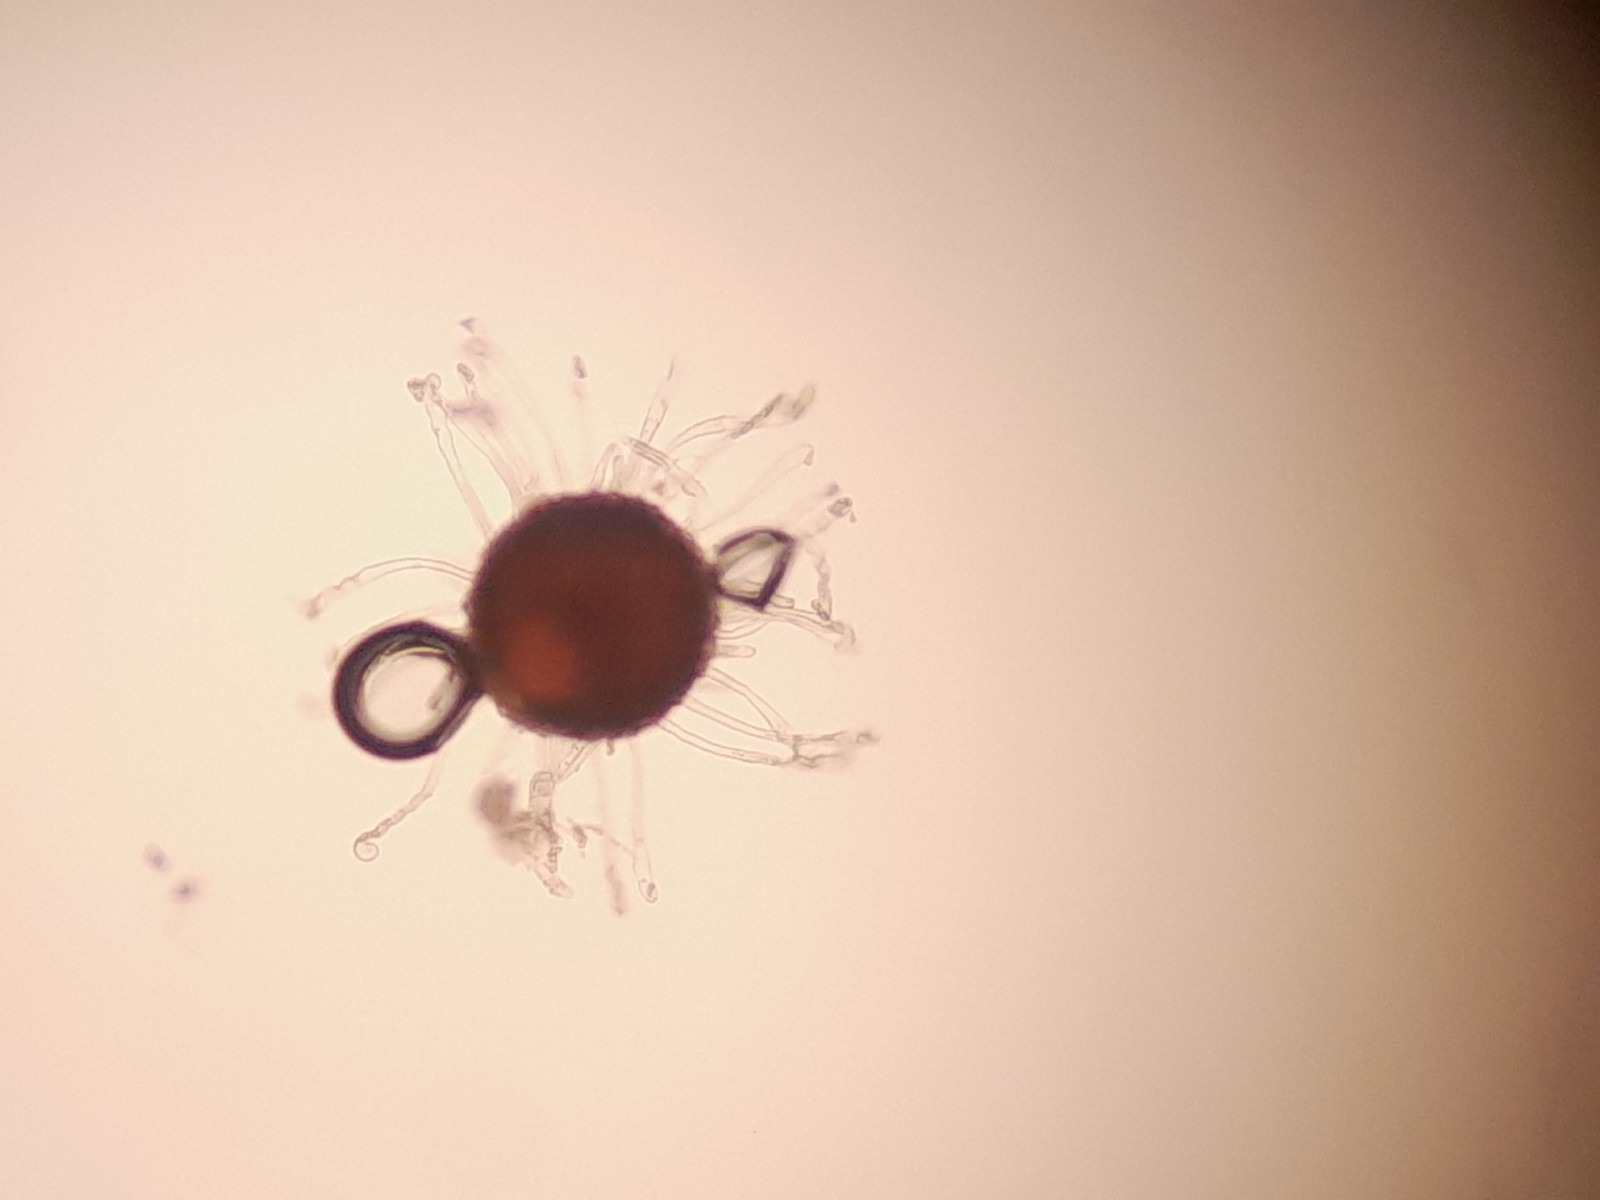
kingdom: Fungi
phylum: Ascomycota
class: Leotiomycetes
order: Helotiales
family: Erysiphaceae
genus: Erysiphe
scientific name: Erysiphe flexuosa
